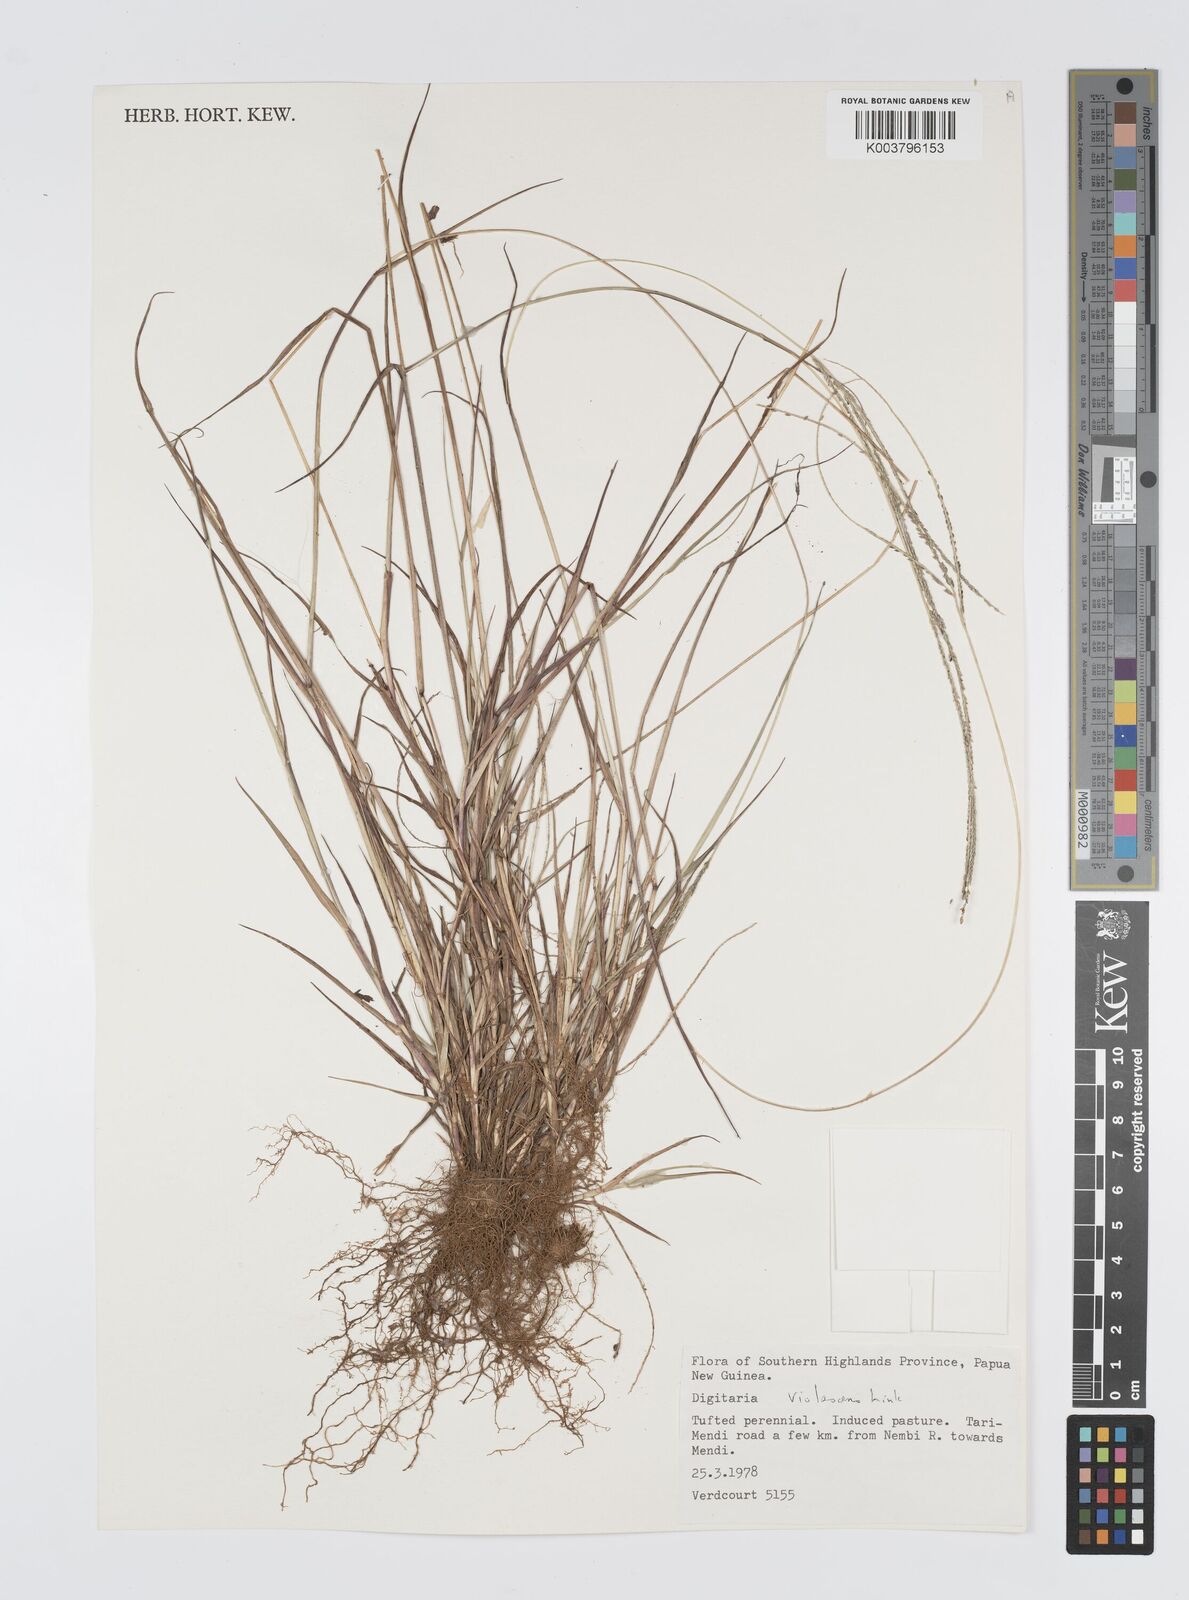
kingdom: Plantae
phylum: Tracheophyta
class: Liliopsida
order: Poales
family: Poaceae
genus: Digitaria
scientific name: Digitaria violascens
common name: Violet crabgrass
